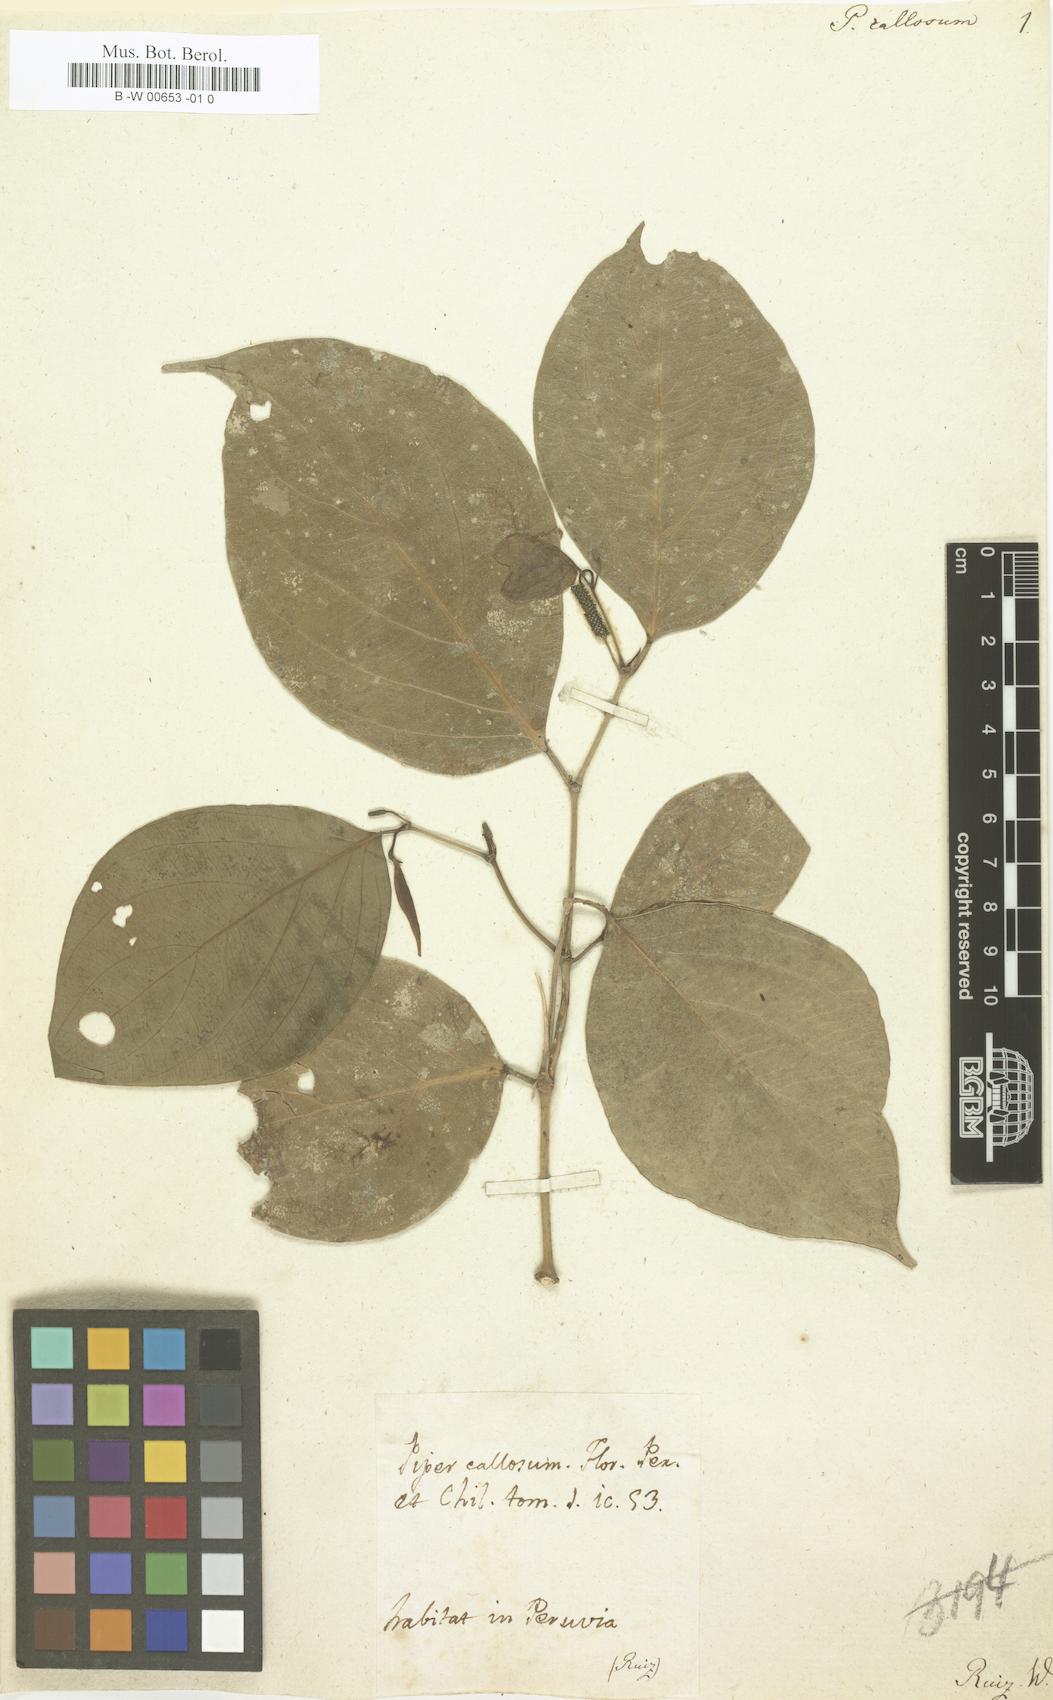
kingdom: Plantae
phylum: Tracheophyta
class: Magnoliopsida
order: Piperales
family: Piperaceae
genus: Piper
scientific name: Piper callosum
